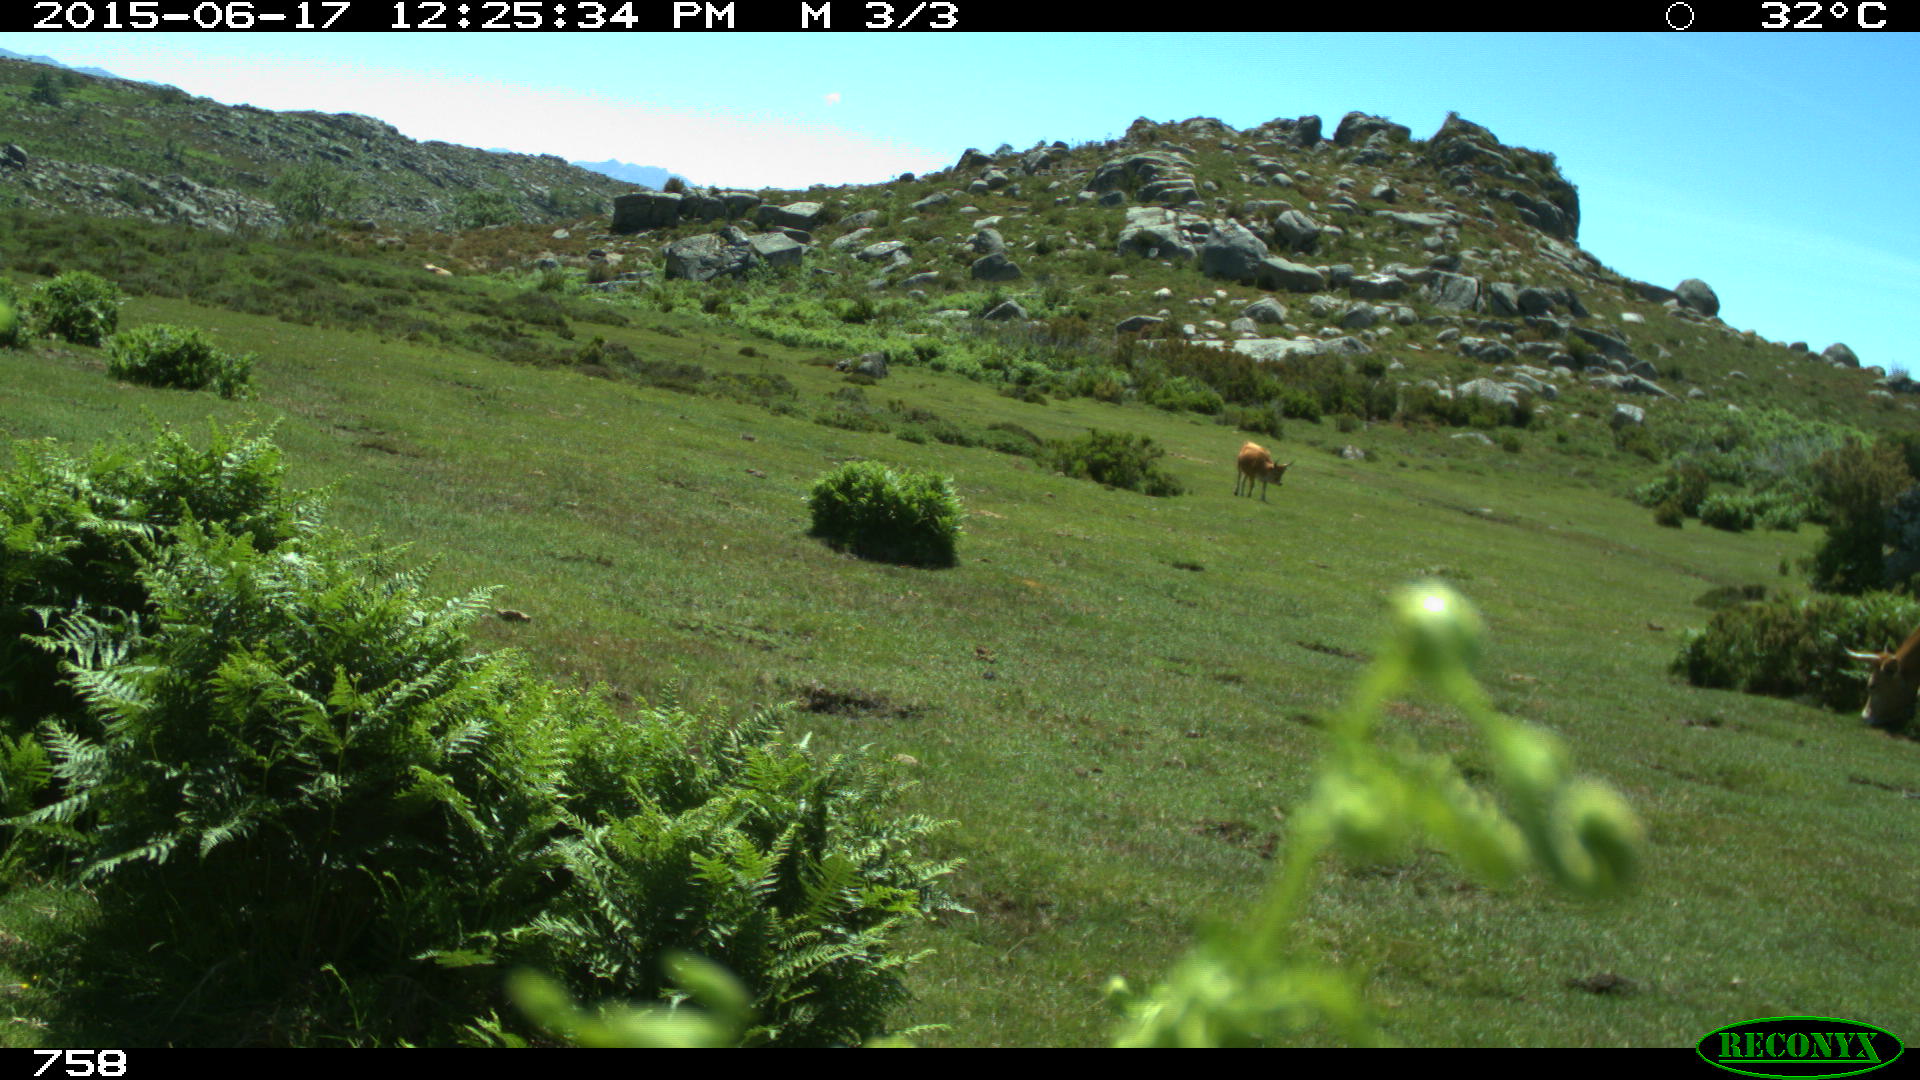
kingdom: Animalia
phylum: Chordata
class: Mammalia
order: Artiodactyla
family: Bovidae
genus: Bos
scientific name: Bos taurus
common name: Domesticated cattle
